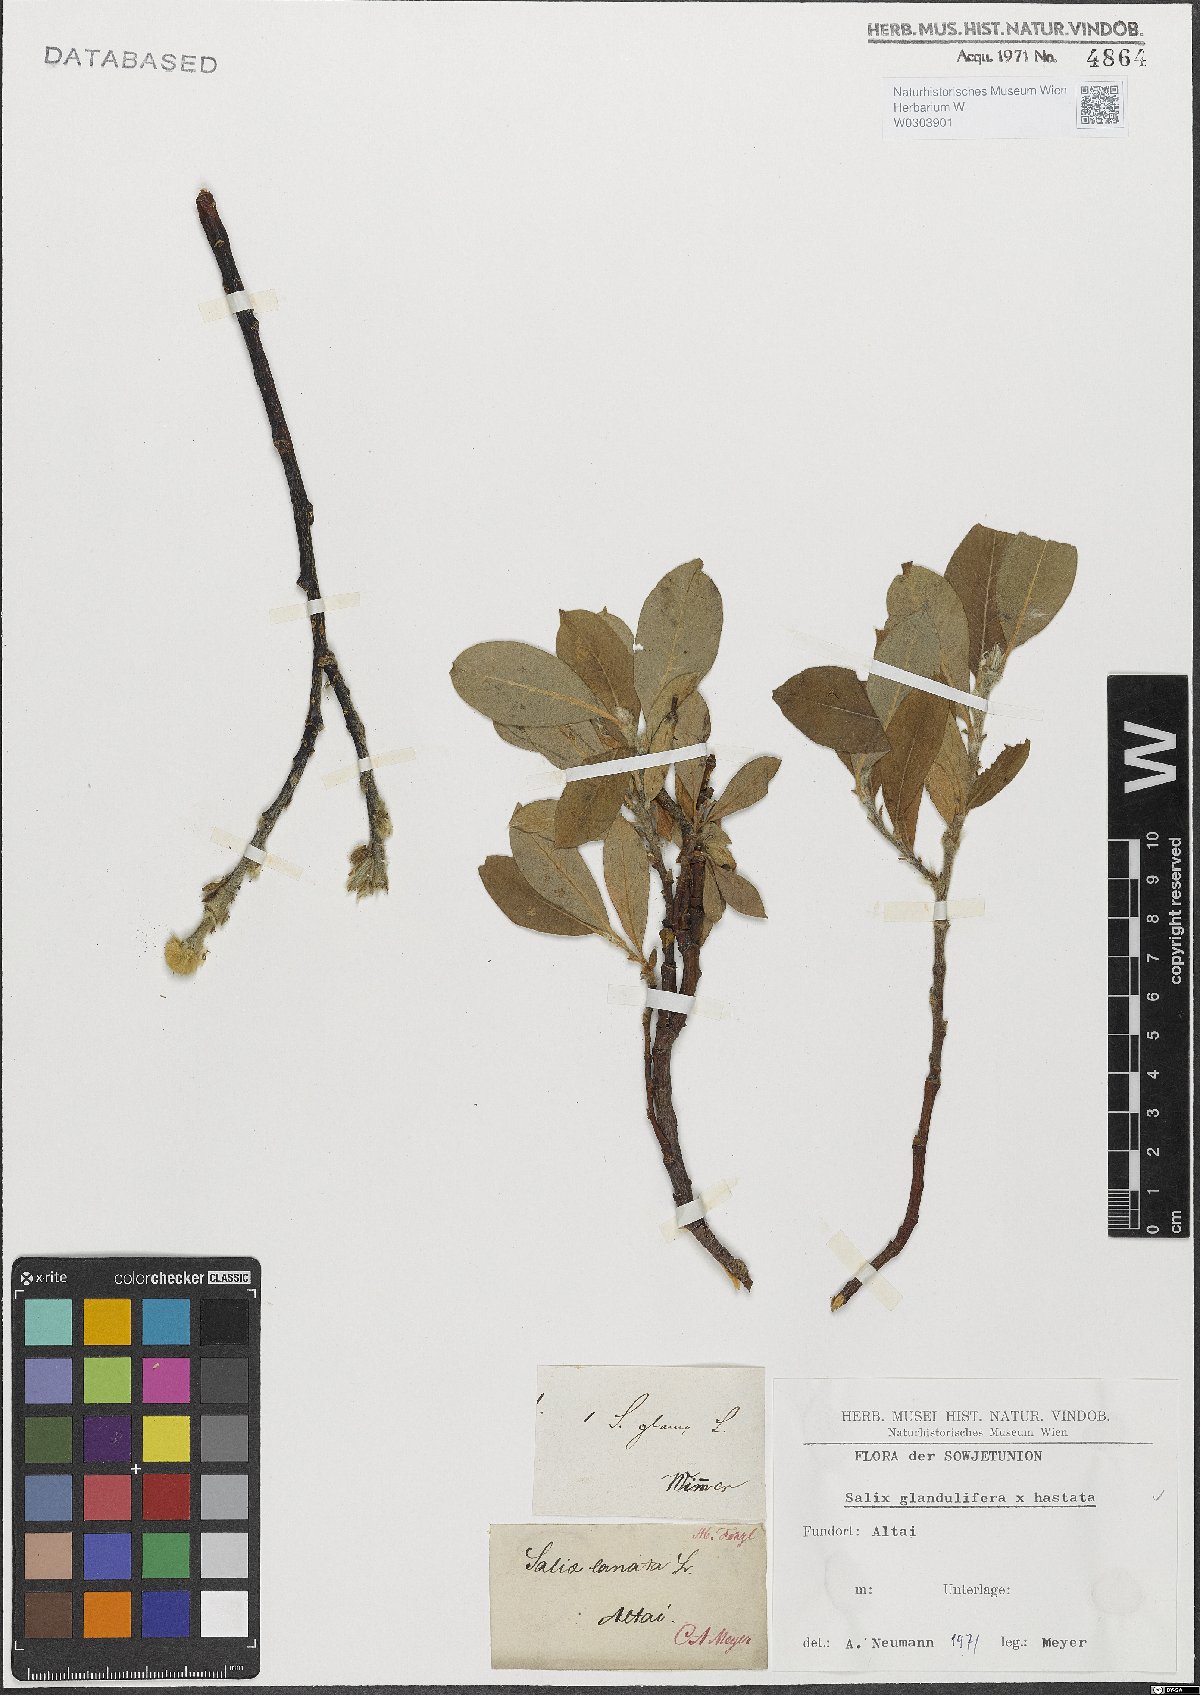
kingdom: Plantae
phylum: Tracheophyta
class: Magnoliopsida
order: Malpighiales
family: Salicaceae
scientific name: Salicaceae
